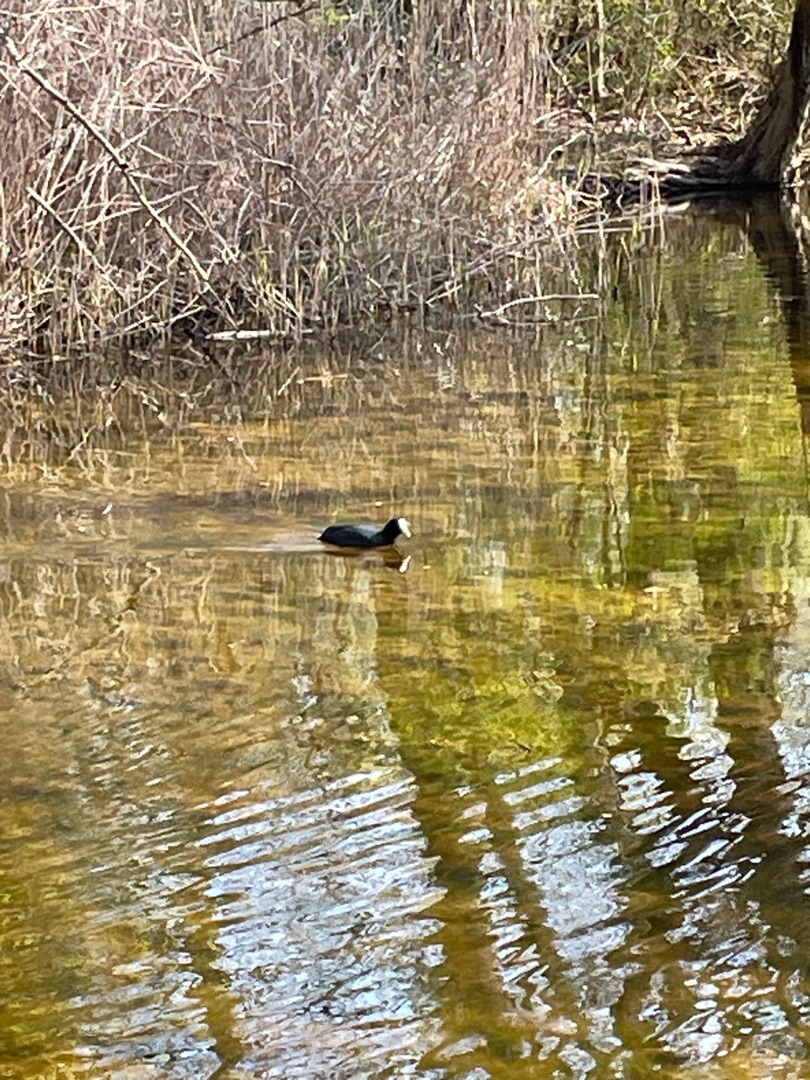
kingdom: Animalia
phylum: Chordata
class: Aves
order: Gruiformes
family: Rallidae
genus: Fulica
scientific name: Fulica atra
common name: Blishøne
